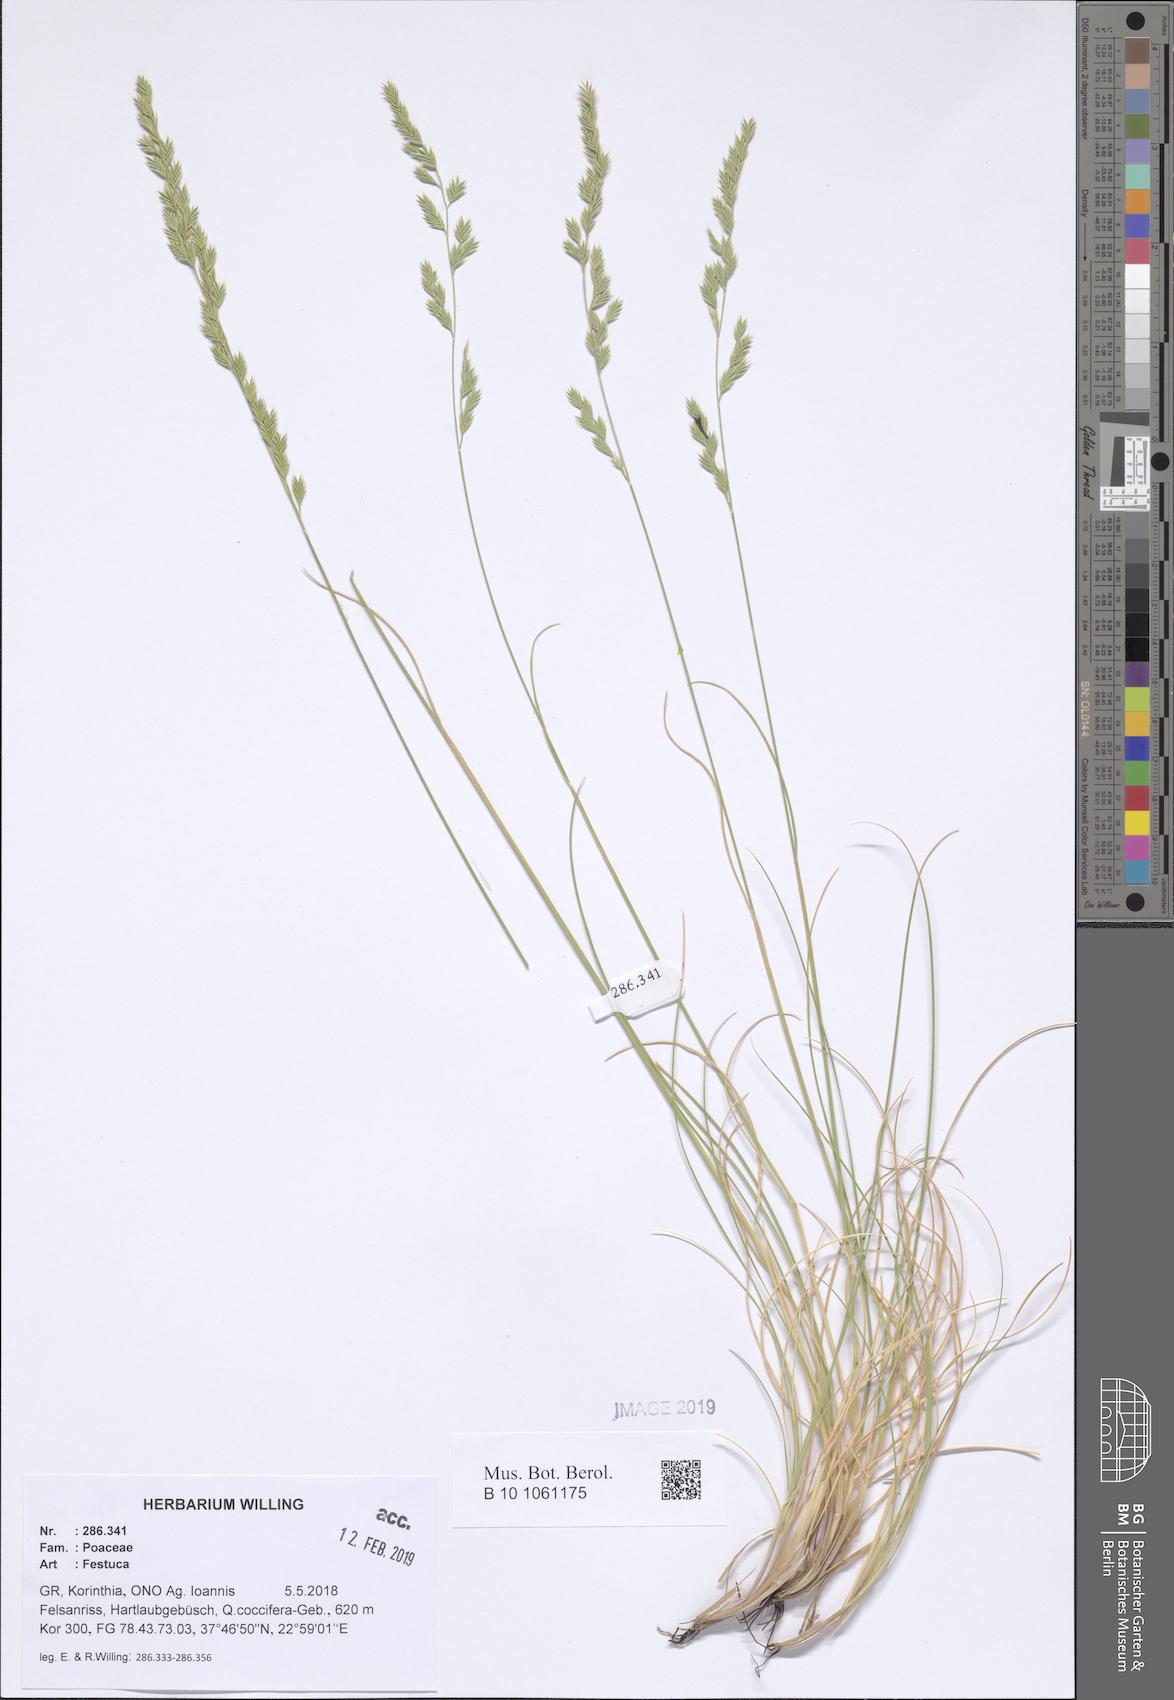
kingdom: Plantae
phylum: Tracheophyta
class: Liliopsida
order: Poales
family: Poaceae
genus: Festuca
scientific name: Festuca
